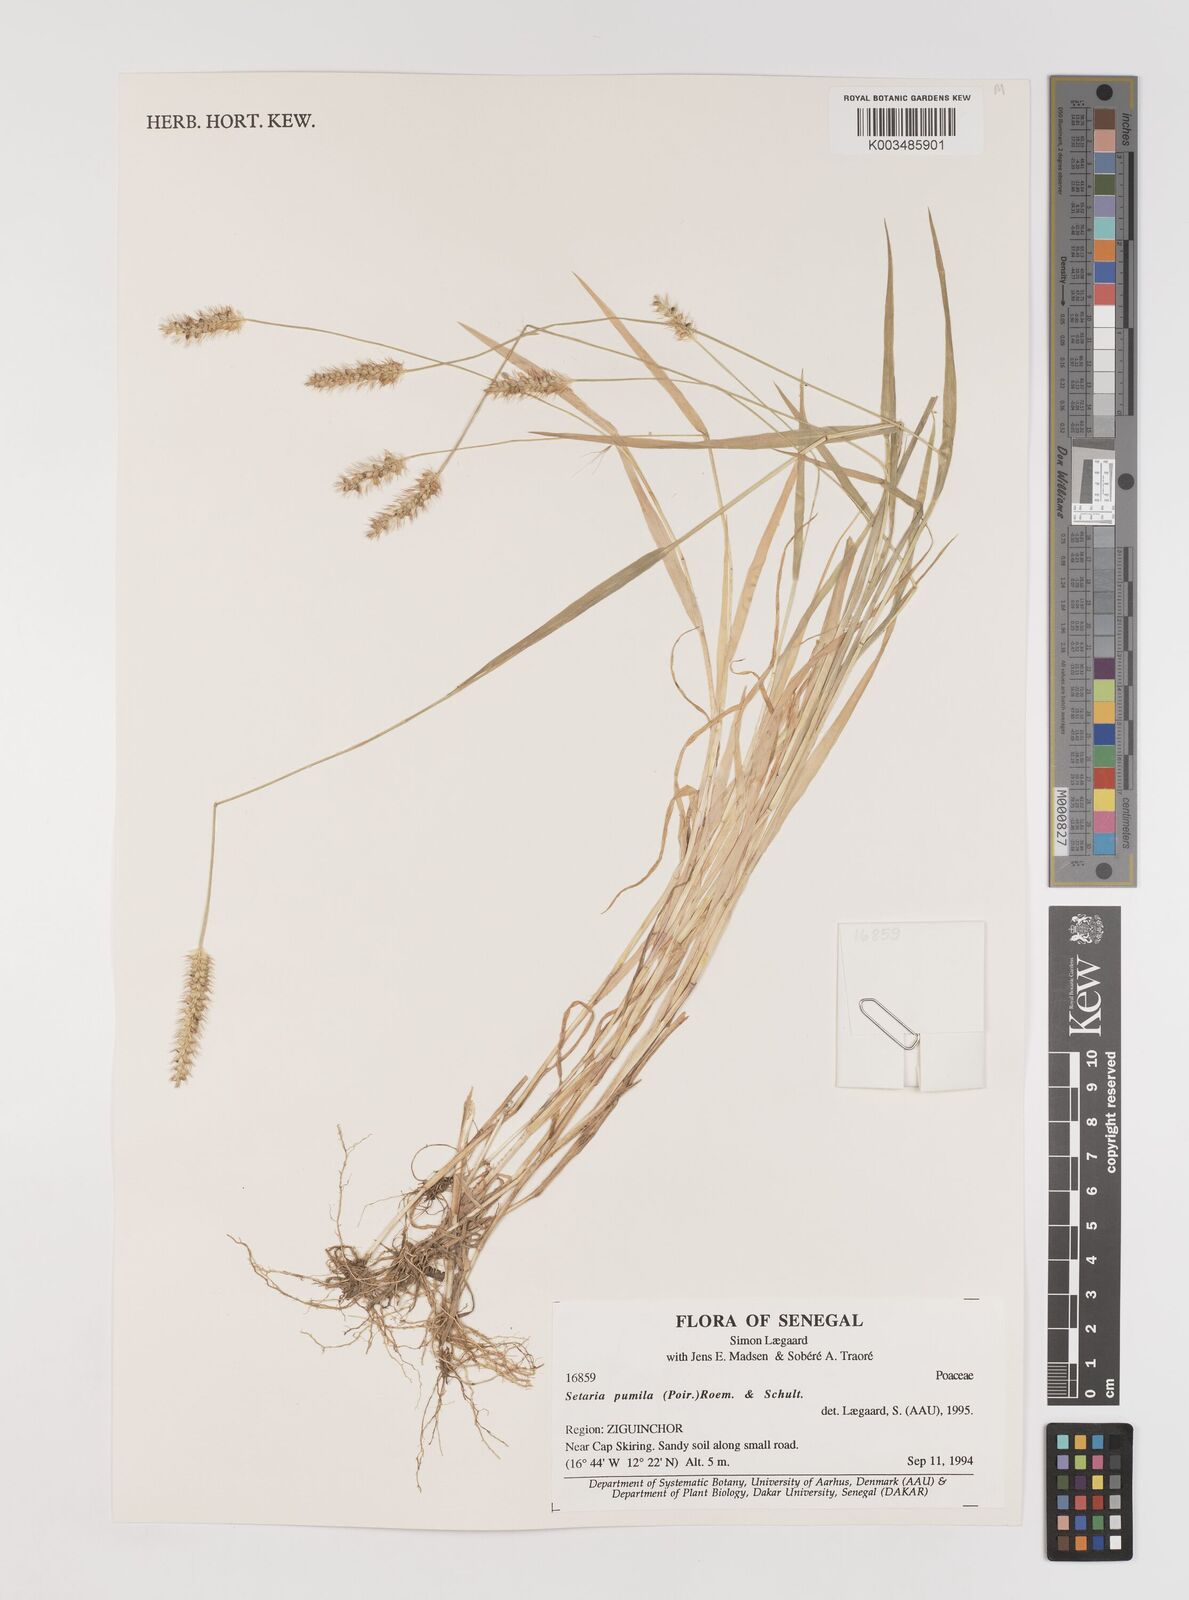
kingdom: Plantae
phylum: Tracheophyta
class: Liliopsida
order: Poales
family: Poaceae
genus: Setaria
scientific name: Setaria pumila
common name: Yellow bristle-grass
